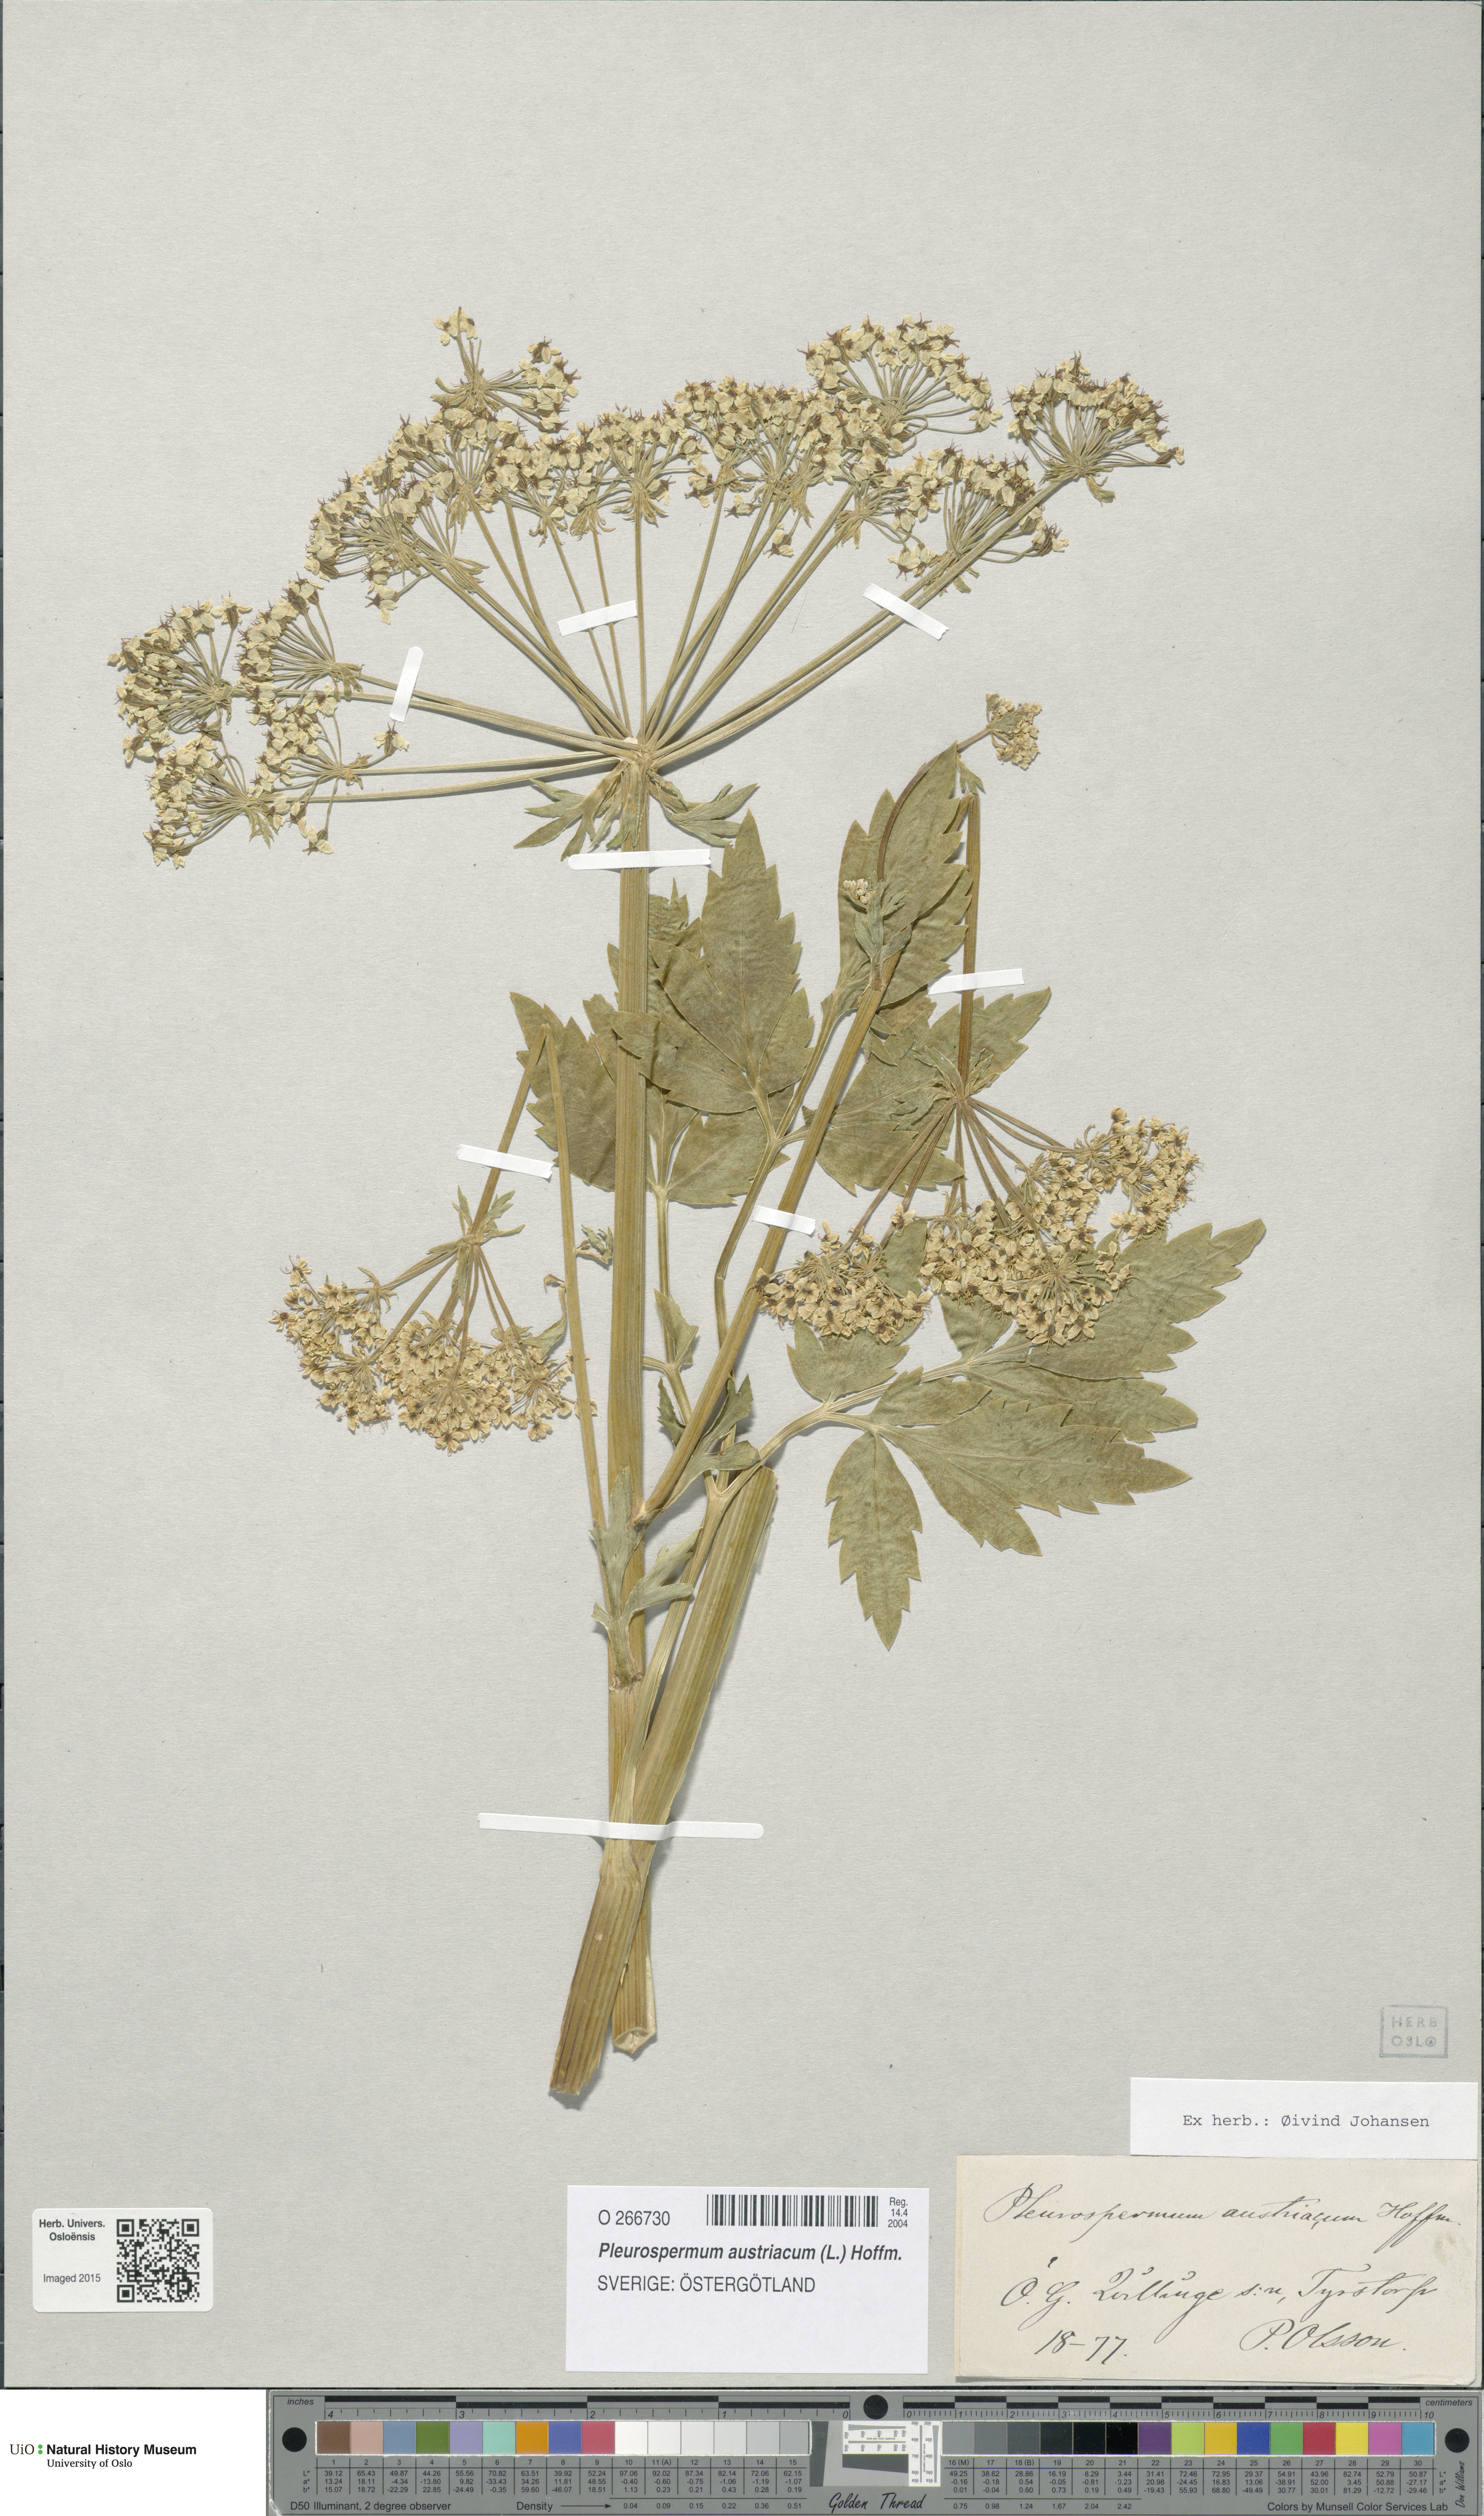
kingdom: Plantae
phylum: Tracheophyta
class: Magnoliopsida
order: Apiales
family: Apiaceae
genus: Pleurospermum
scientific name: Pleurospermum austriacum
